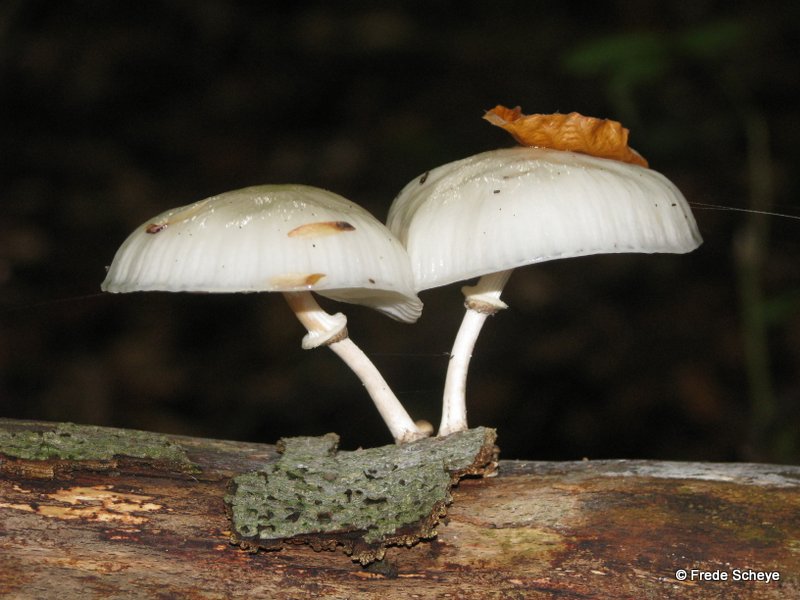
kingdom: Fungi
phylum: Basidiomycota
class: Agaricomycetes
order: Agaricales
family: Physalacriaceae
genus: Mucidula
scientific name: Mucidula mucida
